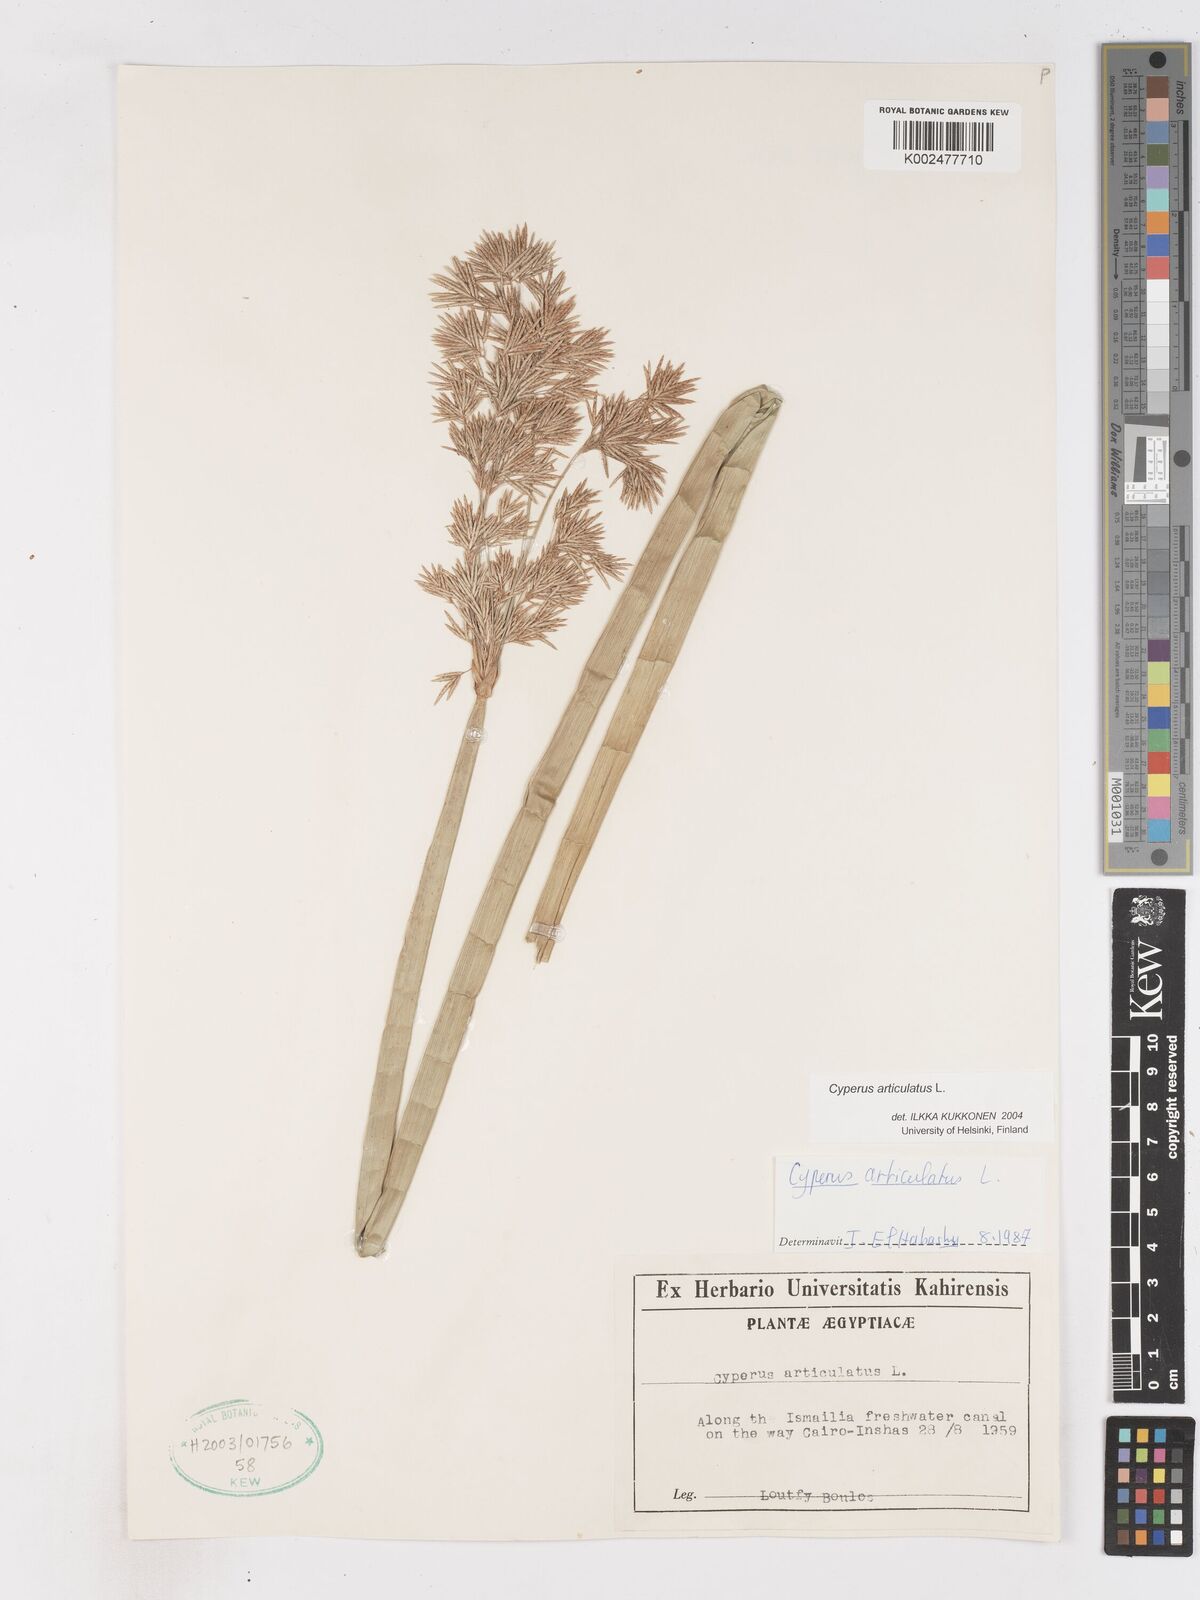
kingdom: Plantae
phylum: Tracheophyta
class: Liliopsida
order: Poales
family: Cyperaceae
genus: Cyperus
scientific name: Cyperus articulatus
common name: Jointed flatsedge
